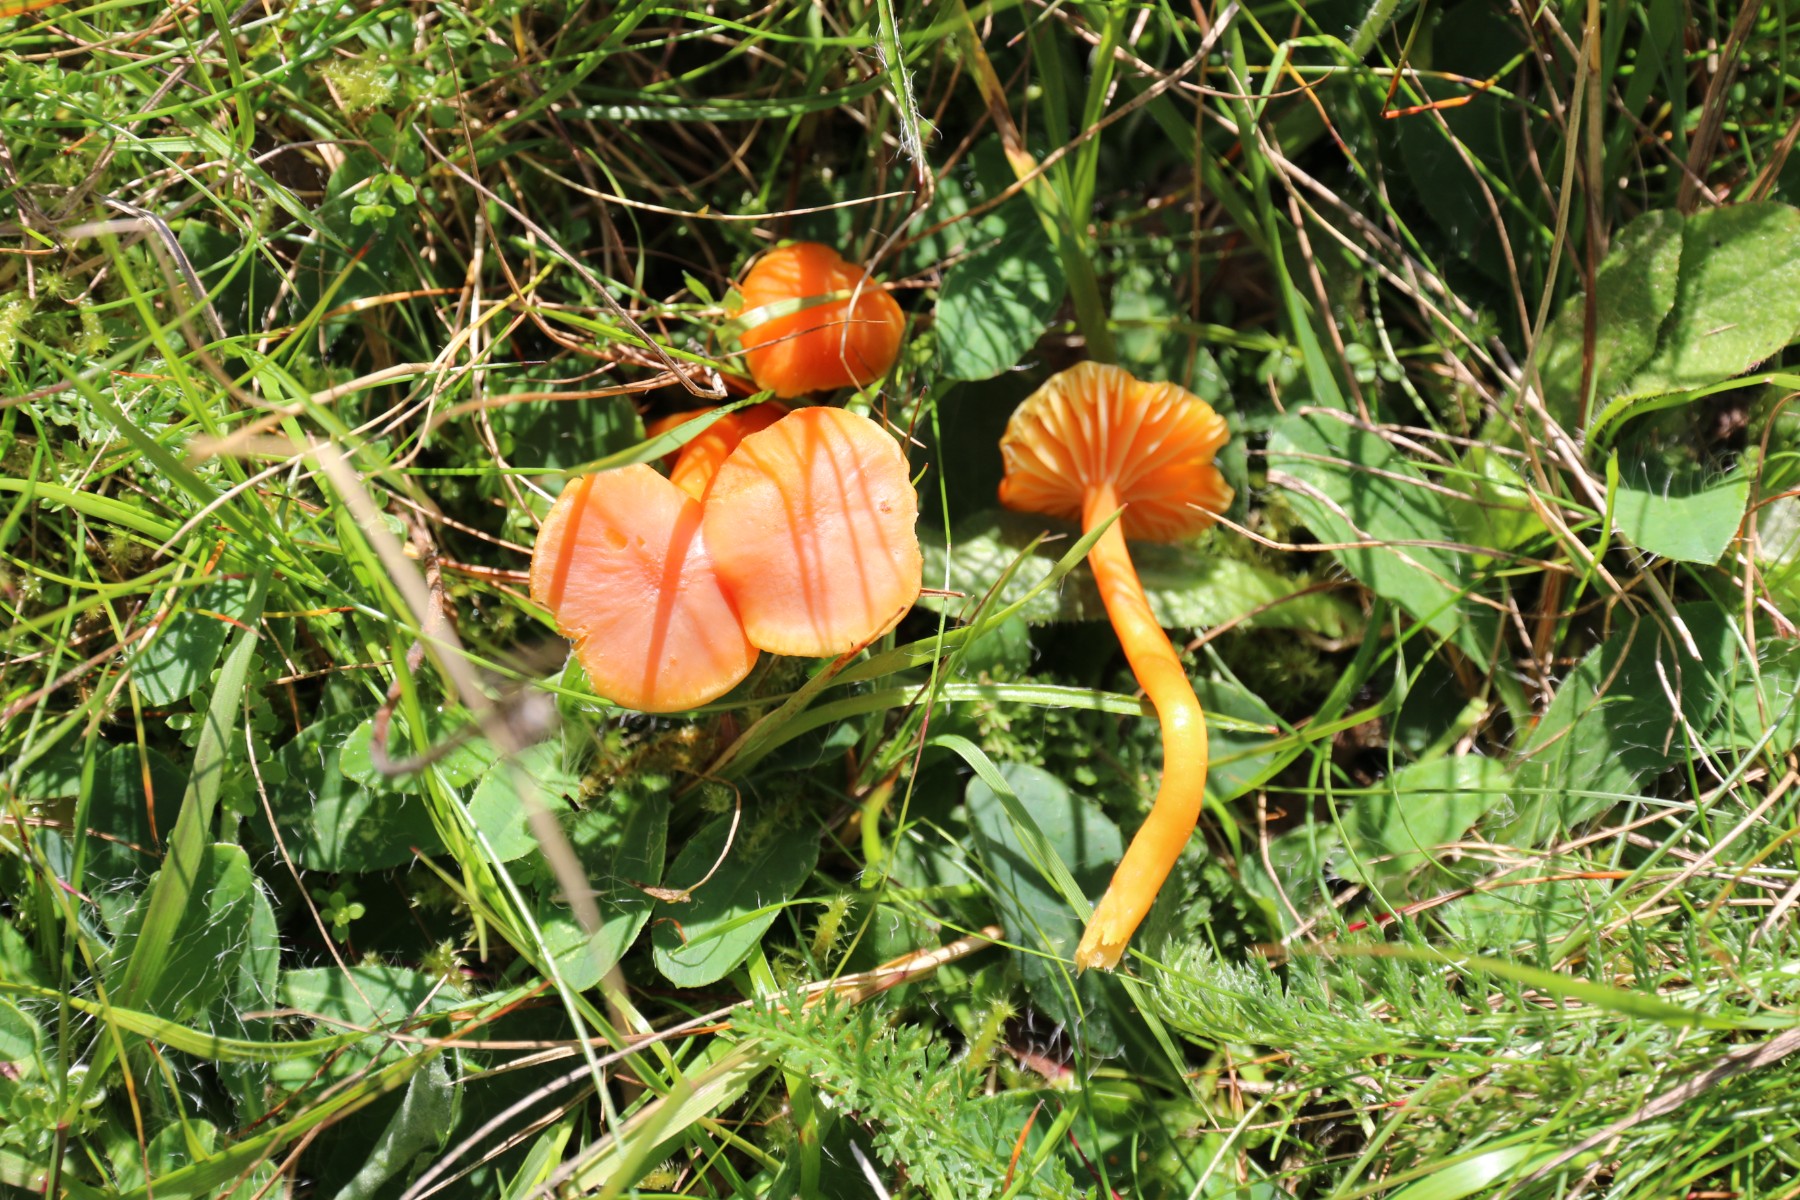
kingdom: Fungi
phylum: Basidiomycota
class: Agaricomycetes
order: Agaricales
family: Hygrophoraceae
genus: Hygrocybe
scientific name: Hygrocybe reidii
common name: honning-vokshat
